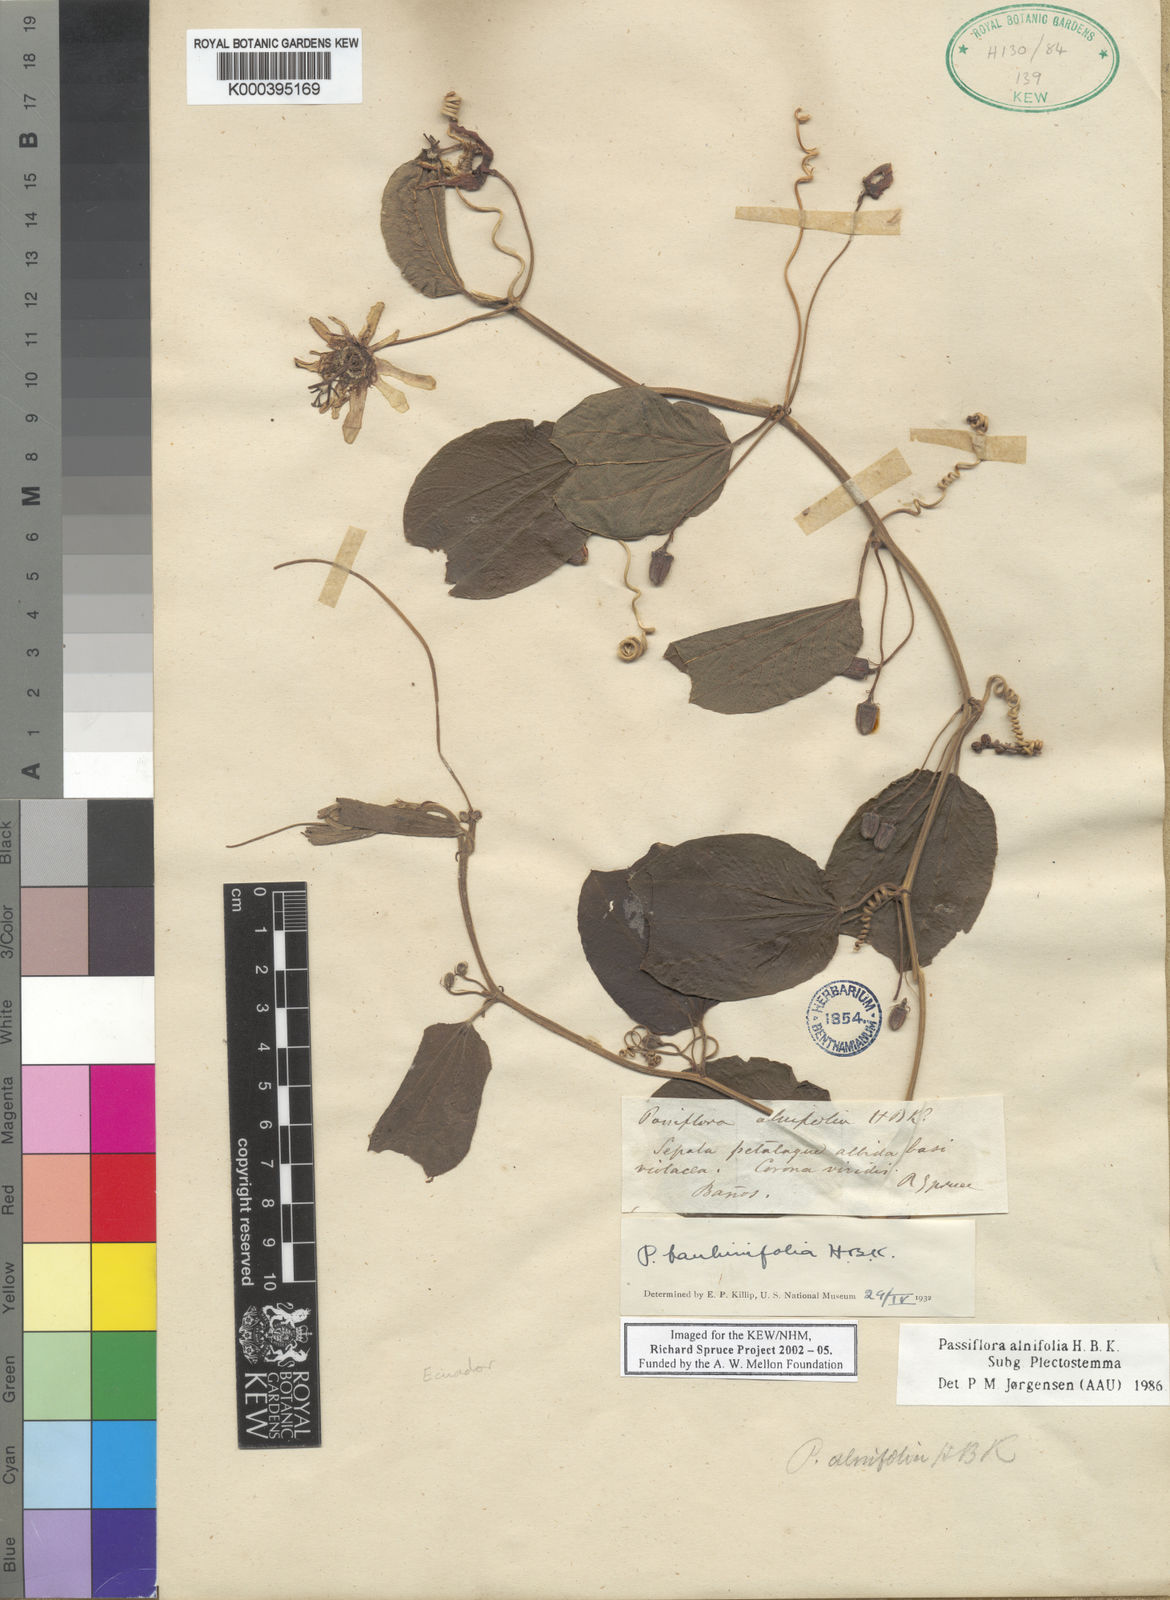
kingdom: Plantae
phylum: Tracheophyta
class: Magnoliopsida
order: Malpighiales
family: Passifloraceae
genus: Passiflora
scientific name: Passiflora
